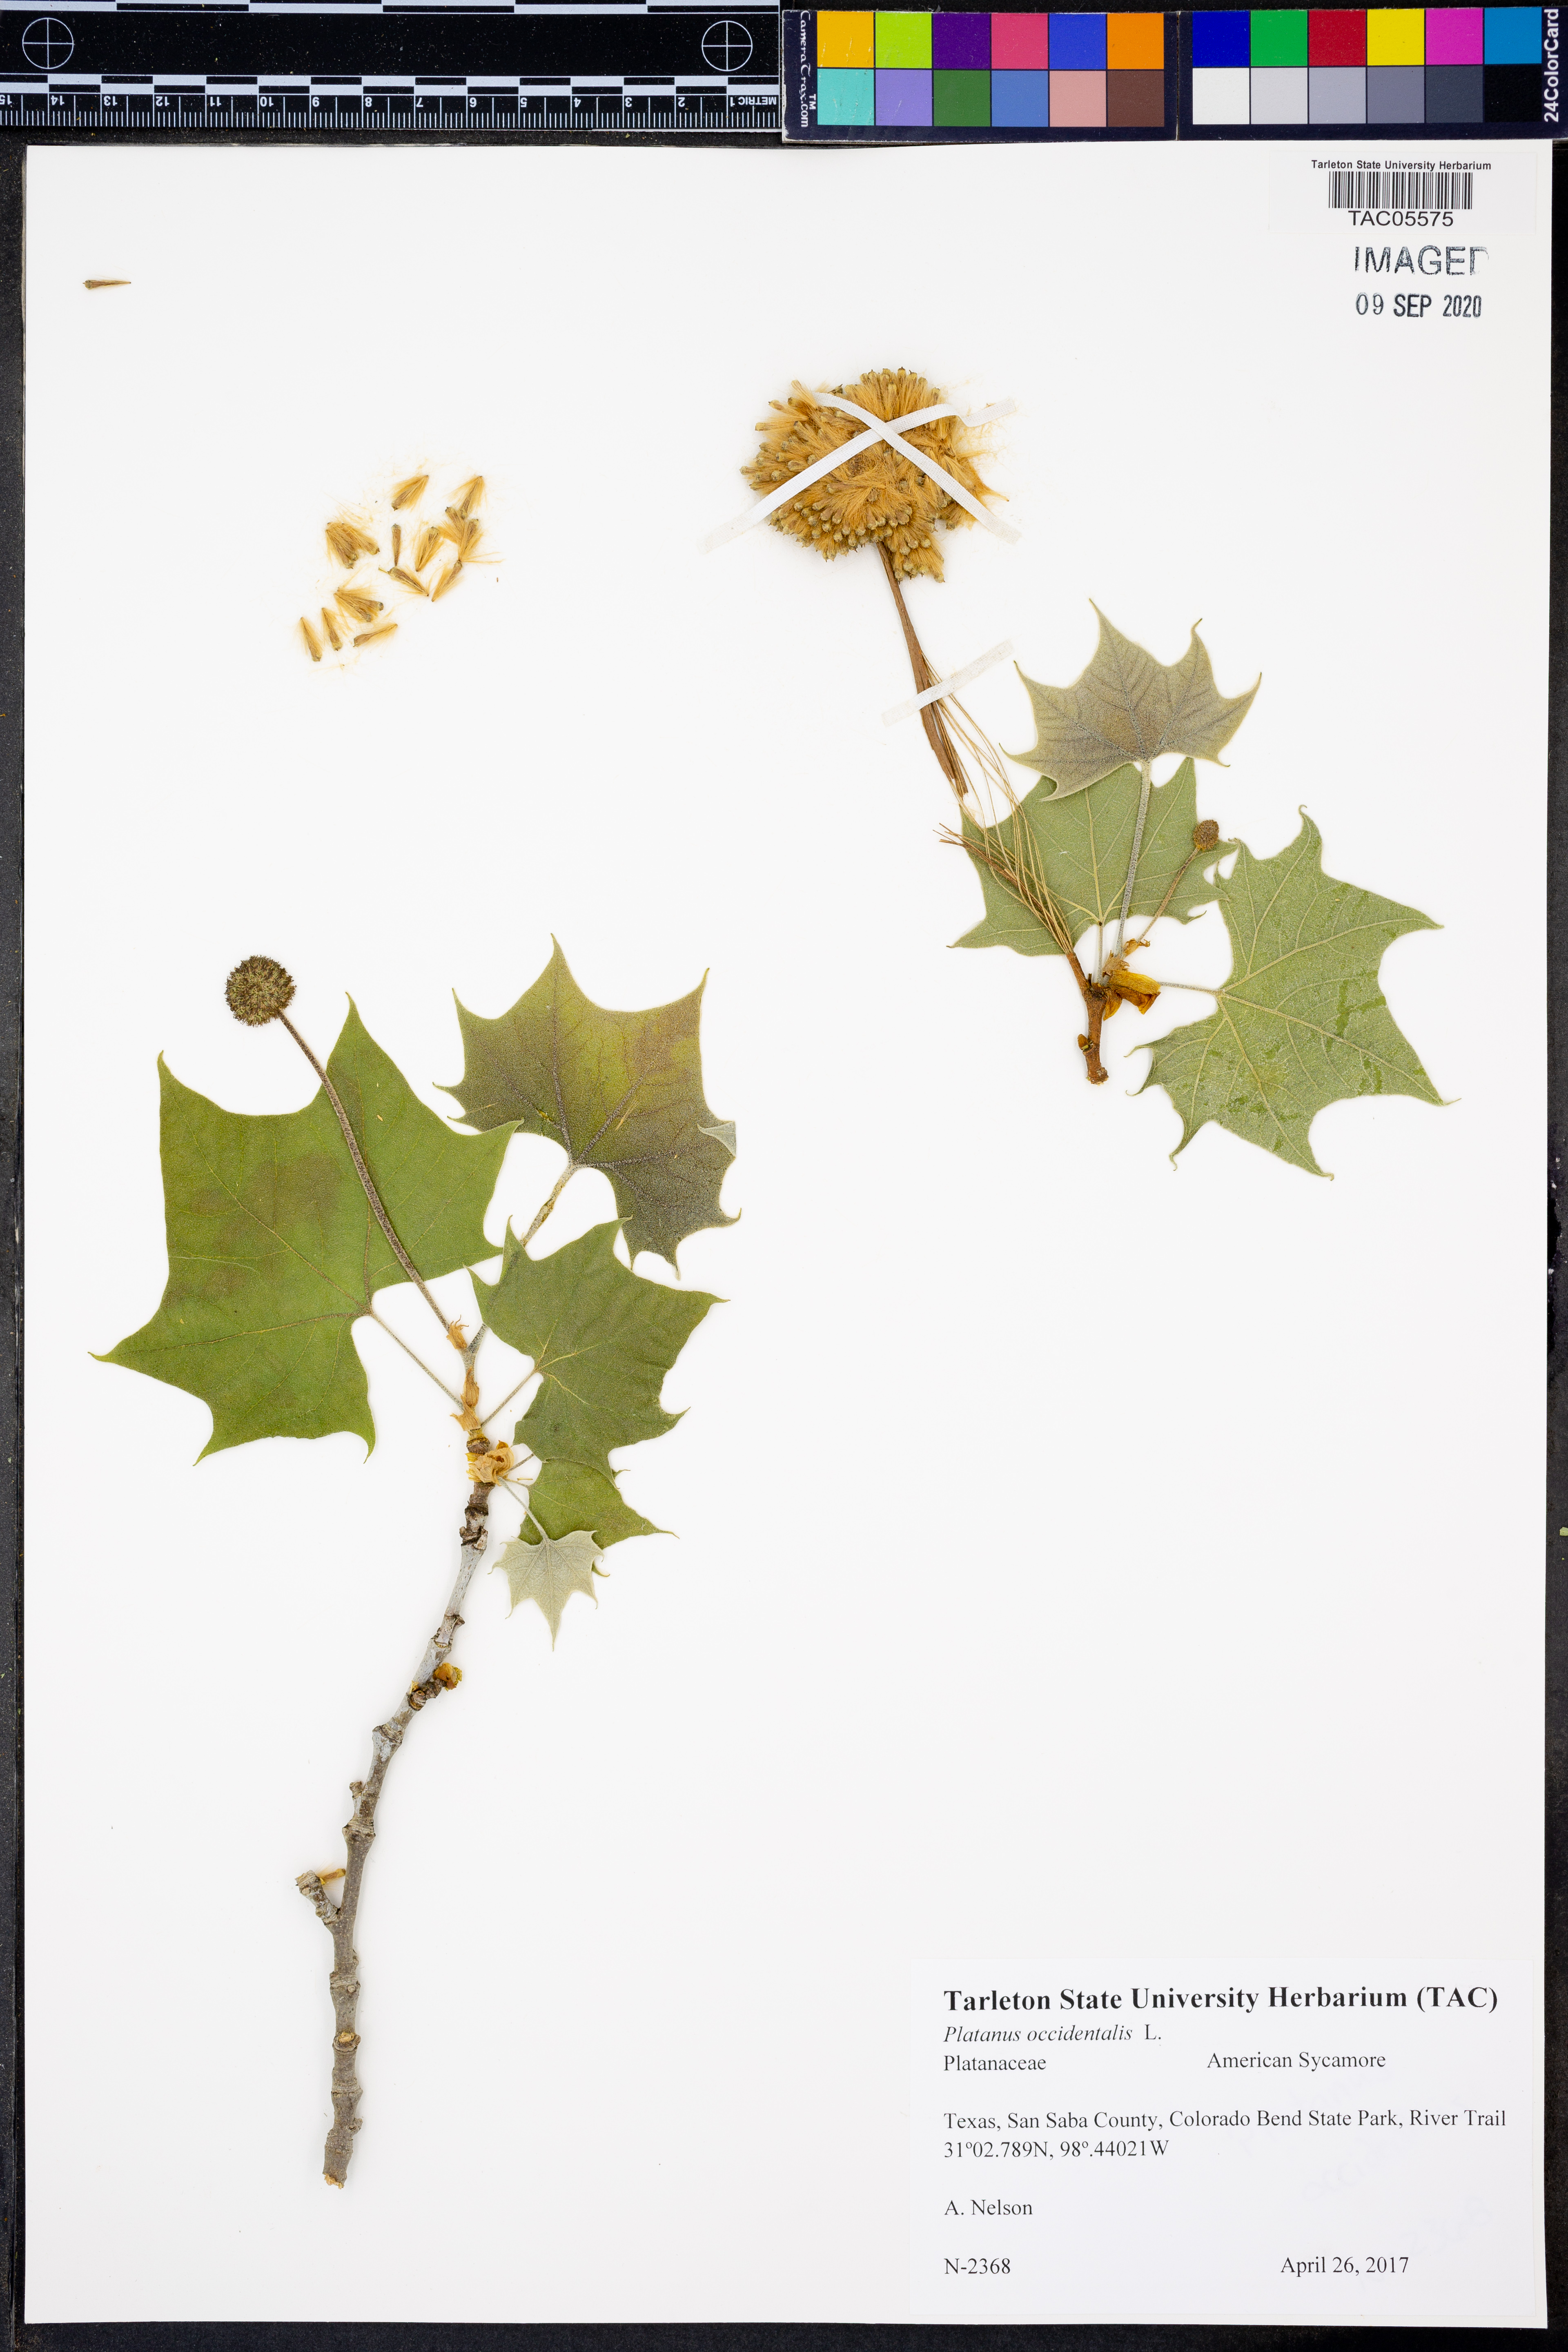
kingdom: Plantae
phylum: Tracheophyta
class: Magnoliopsida
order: Proteales
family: Platanaceae
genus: Platanus
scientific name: Platanus occidentalis
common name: American sycamore
